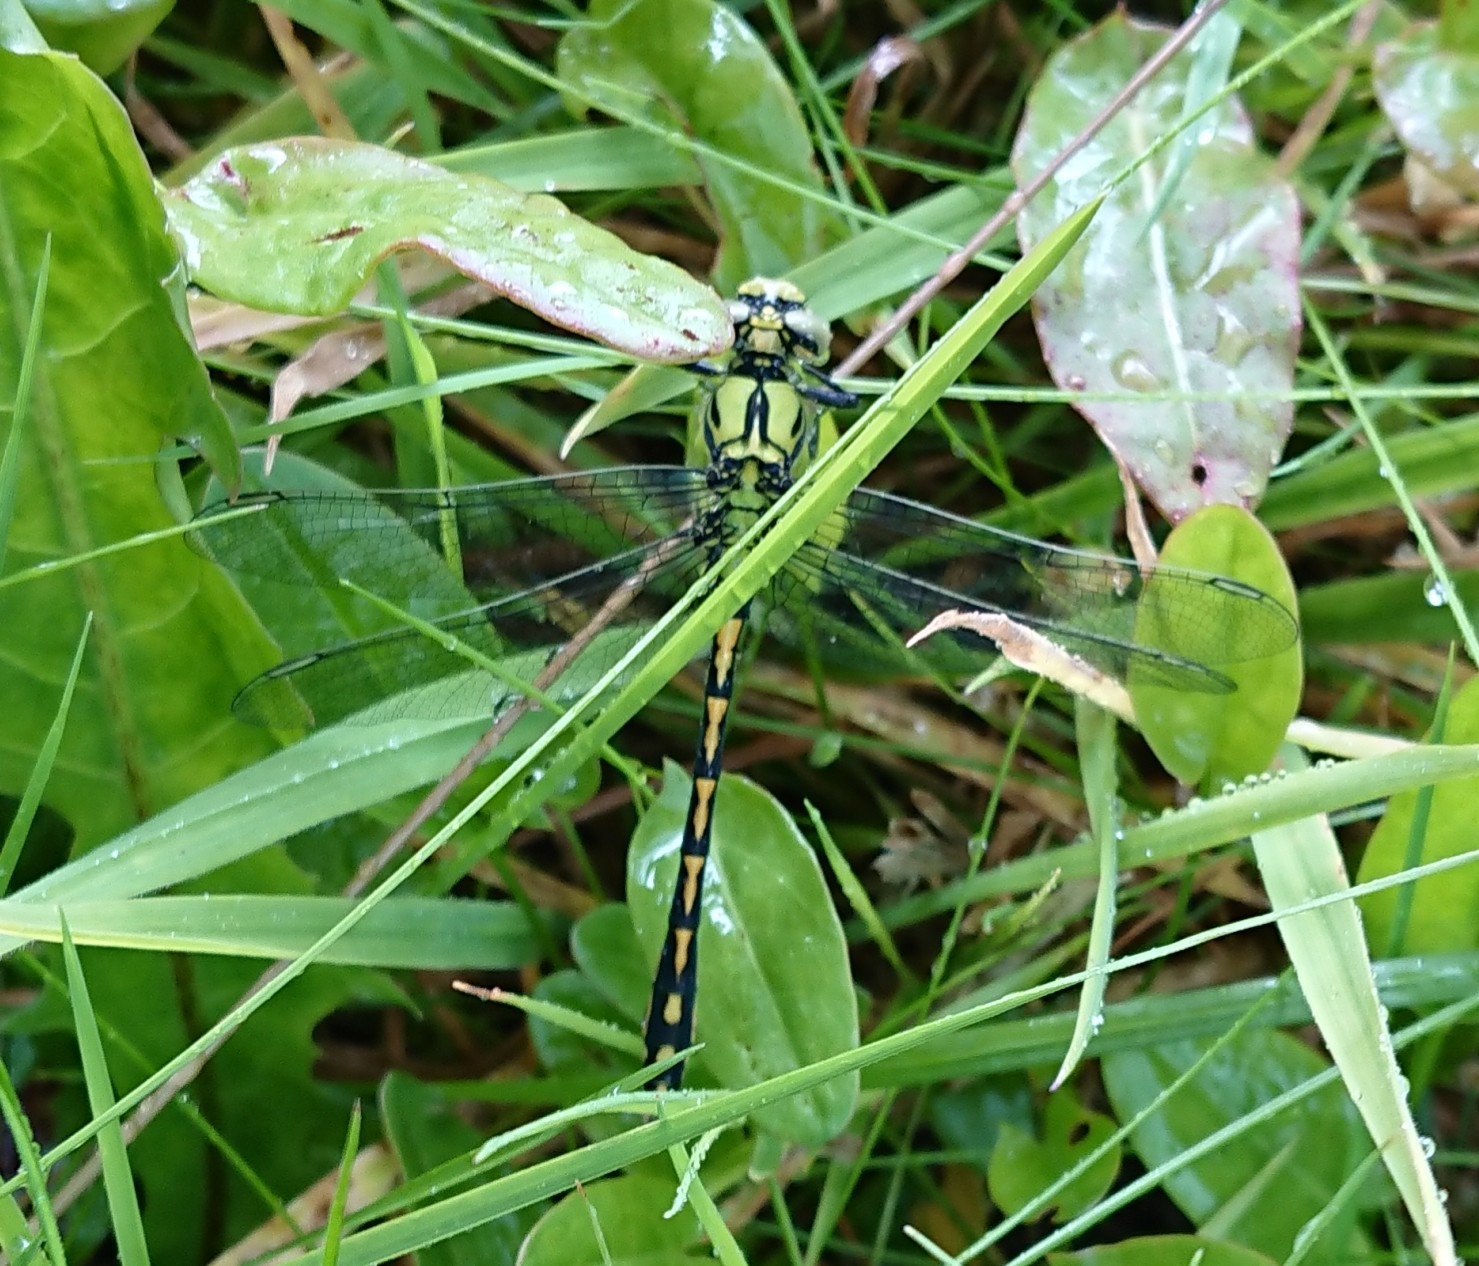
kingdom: Animalia
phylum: Arthropoda
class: Insecta
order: Odonata
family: Gomphidae
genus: Ophiogomphus
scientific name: Ophiogomphus cecilia
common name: Grøn kølleguldsmed
